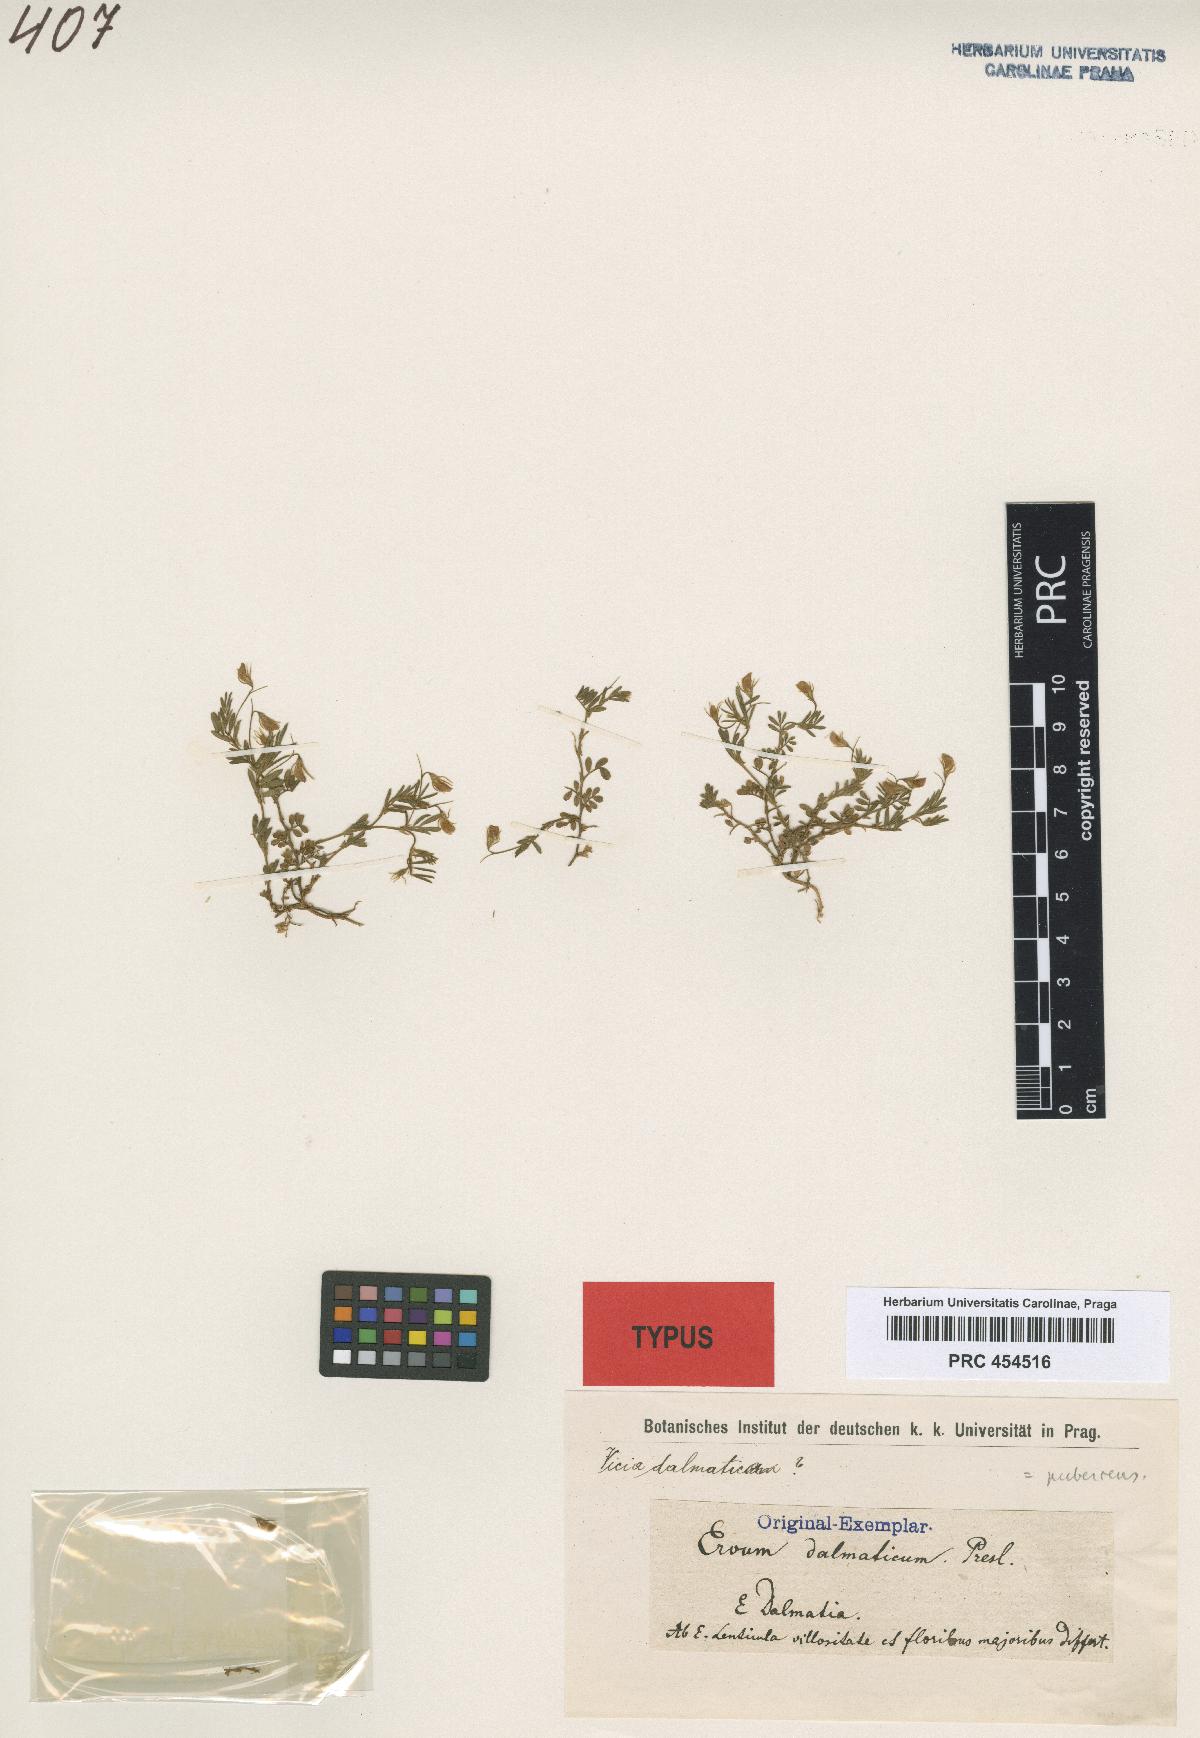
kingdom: Plantae
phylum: Tracheophyta
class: Magnoliopsida
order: Fabales
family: Fabaceae
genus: Vicia
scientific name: Vicia lentoides
